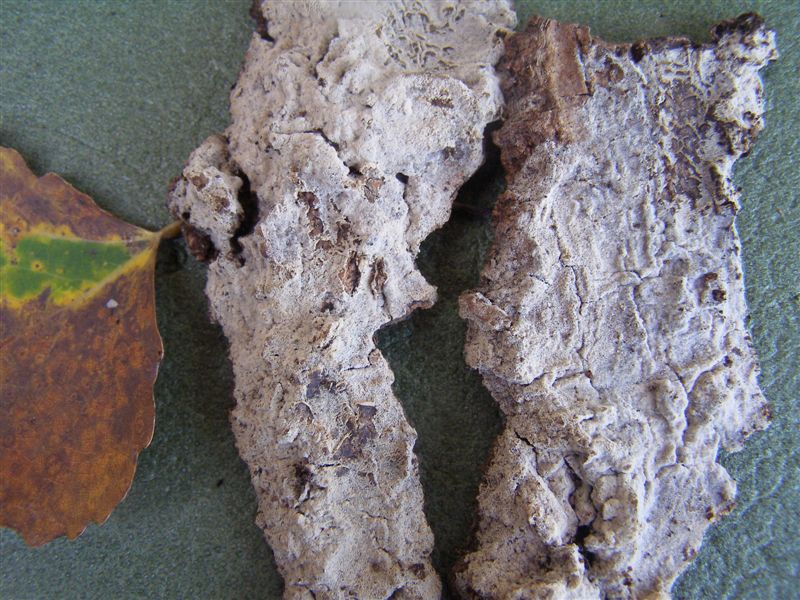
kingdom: Fungi
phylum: Basidiomycota
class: Agaricomycetes
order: Cantharellales
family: Botryobasidiaceae
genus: Botryobasidium
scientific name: Botryobasidium isabellinum
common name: isabellafarvet spindhinde
